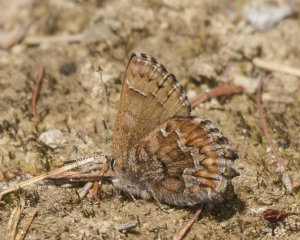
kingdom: Animalia
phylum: Arthropoda
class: Insecta
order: Lepidoptera
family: Lycaenidae
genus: Incisalia
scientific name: Incisalia niphon
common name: Eastern Pine Elfin
